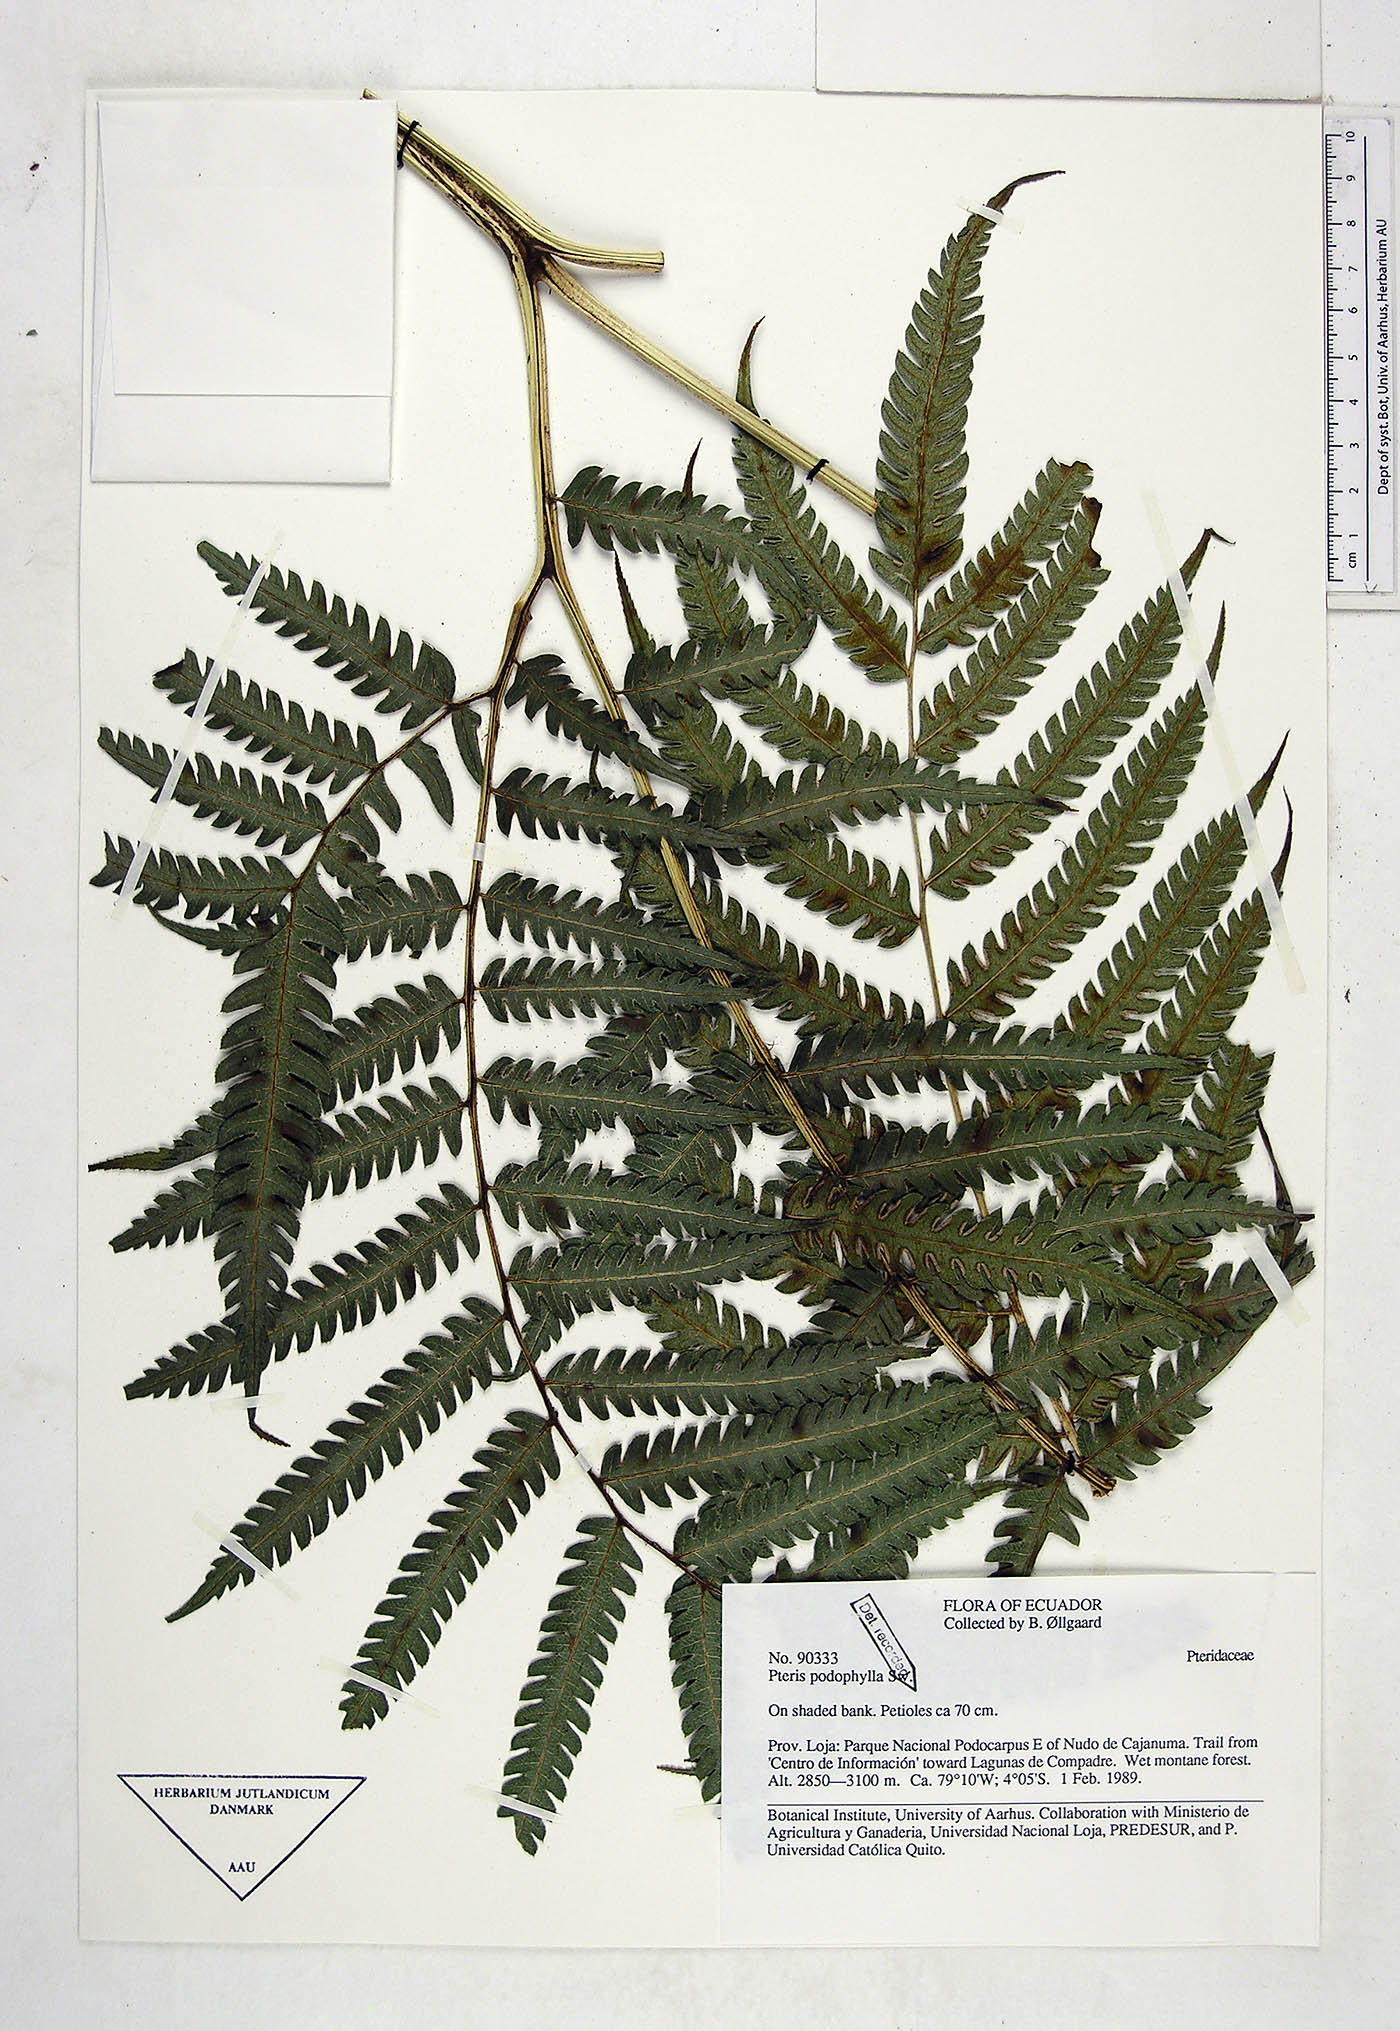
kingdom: Plantae
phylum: Tracheophyta
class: Polypodiopsida
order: Polypodiales
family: Pteridaceae
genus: Pteris
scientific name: Pteris podophylla
